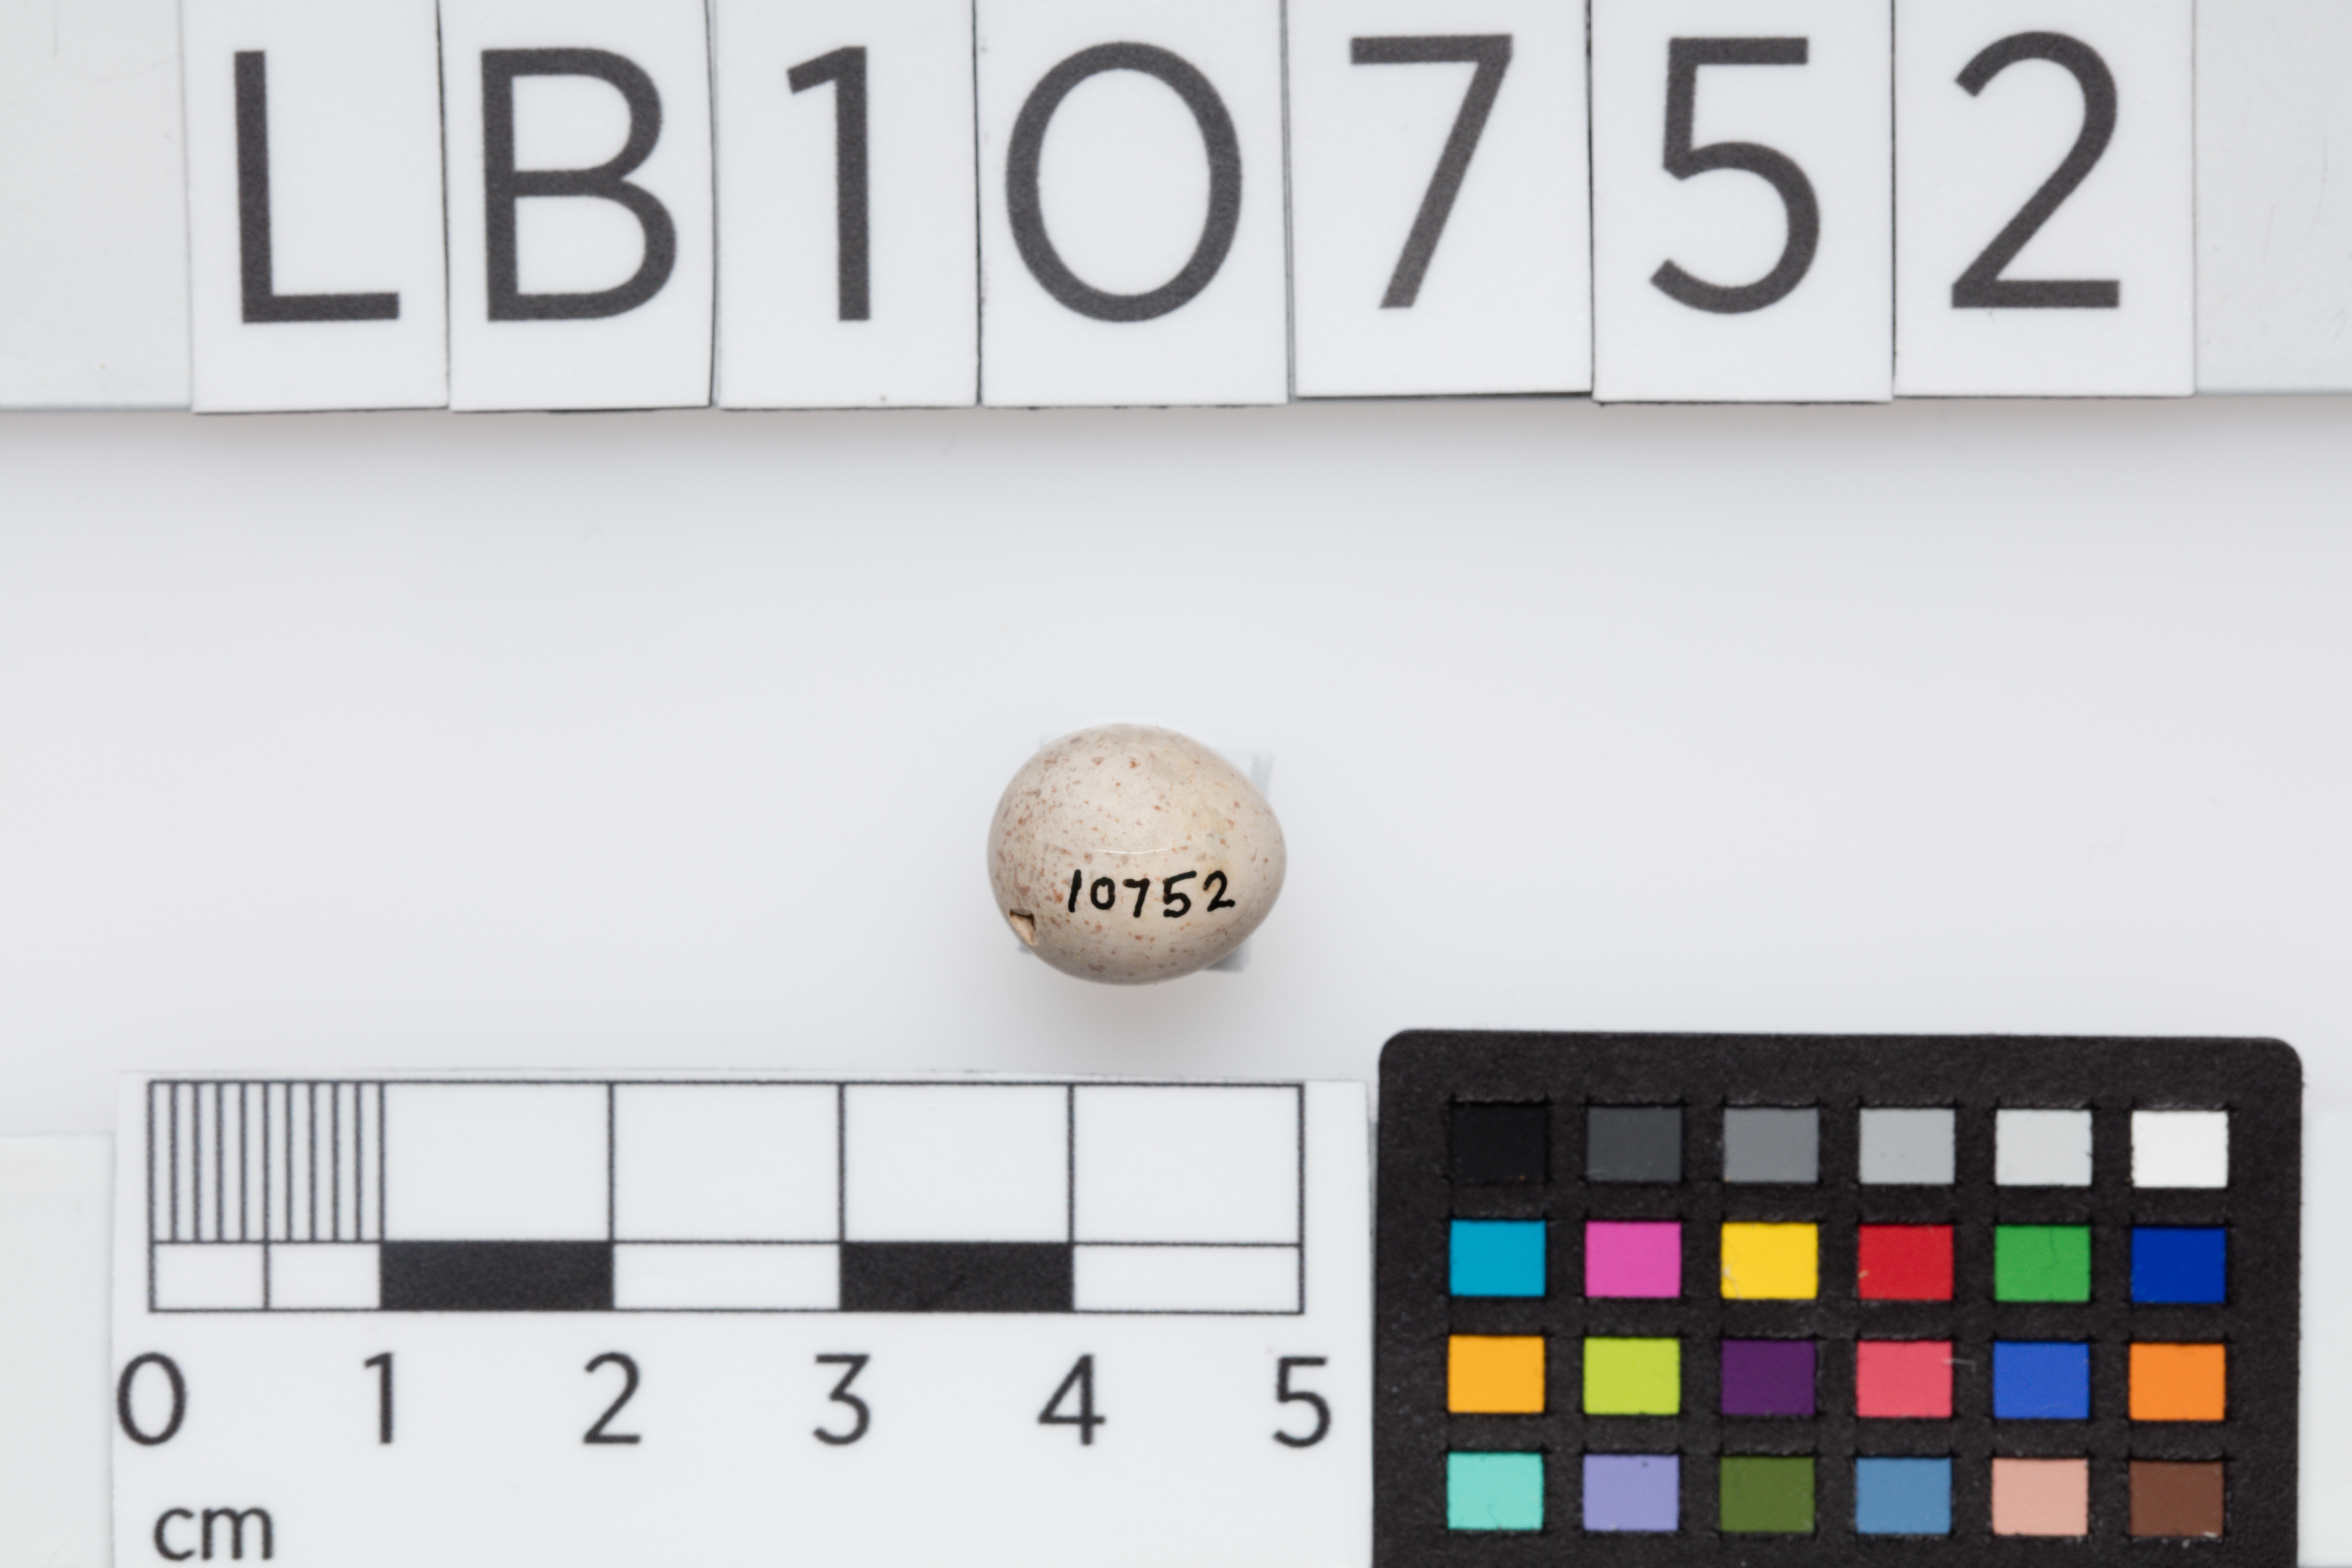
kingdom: Animalia
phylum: Chordata
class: Aves
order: Passeriformes
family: Aegithalidae
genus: Aegithalos
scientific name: Aegithalos caudatus
